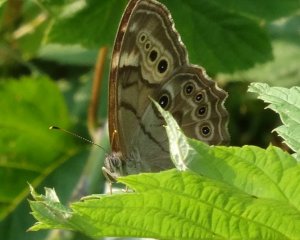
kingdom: Animalia
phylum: Arthropoda
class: Insecta
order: Lepidoptera
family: Nymphalidae
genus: Lethe
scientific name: Lethe anthedon
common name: Northern Pearly-Eye
